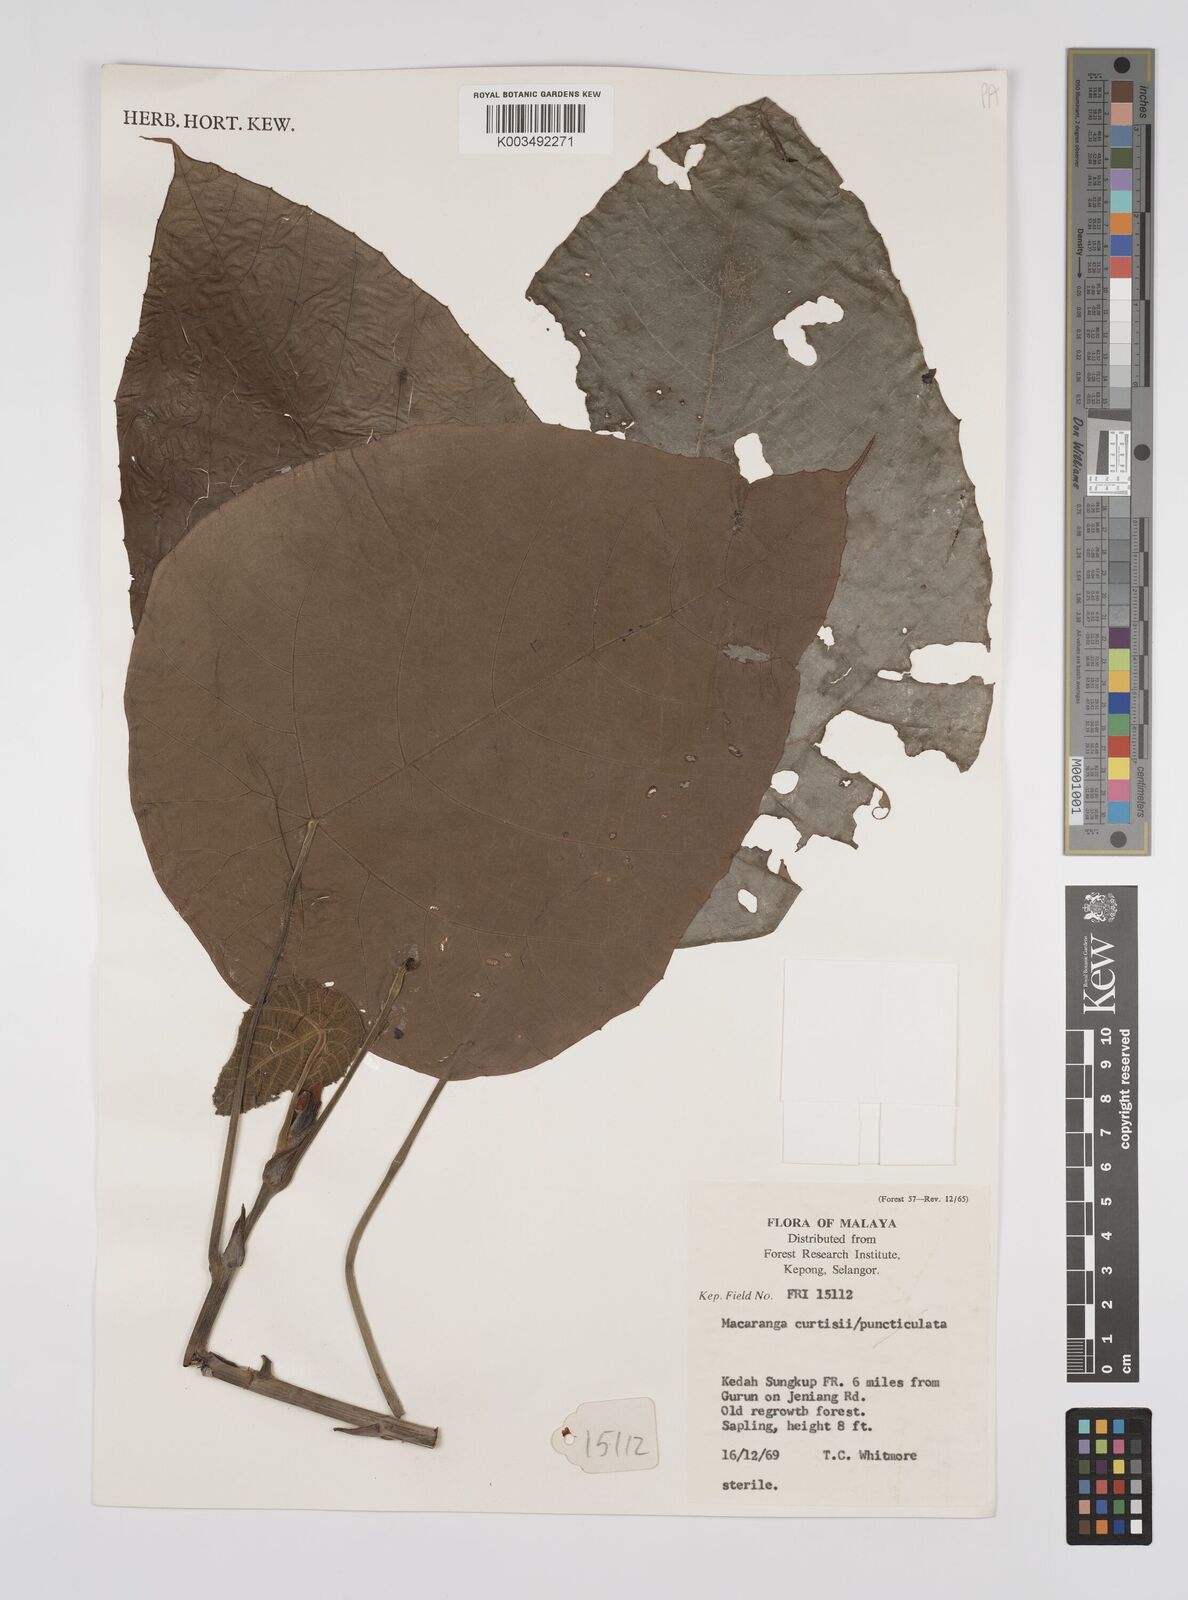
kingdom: Plantae
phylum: Tracheophyta
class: Magnoliopsida
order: Malpighiales
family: Euphorbiaceae
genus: Macaranga
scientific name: Macaranga pachyphylla
